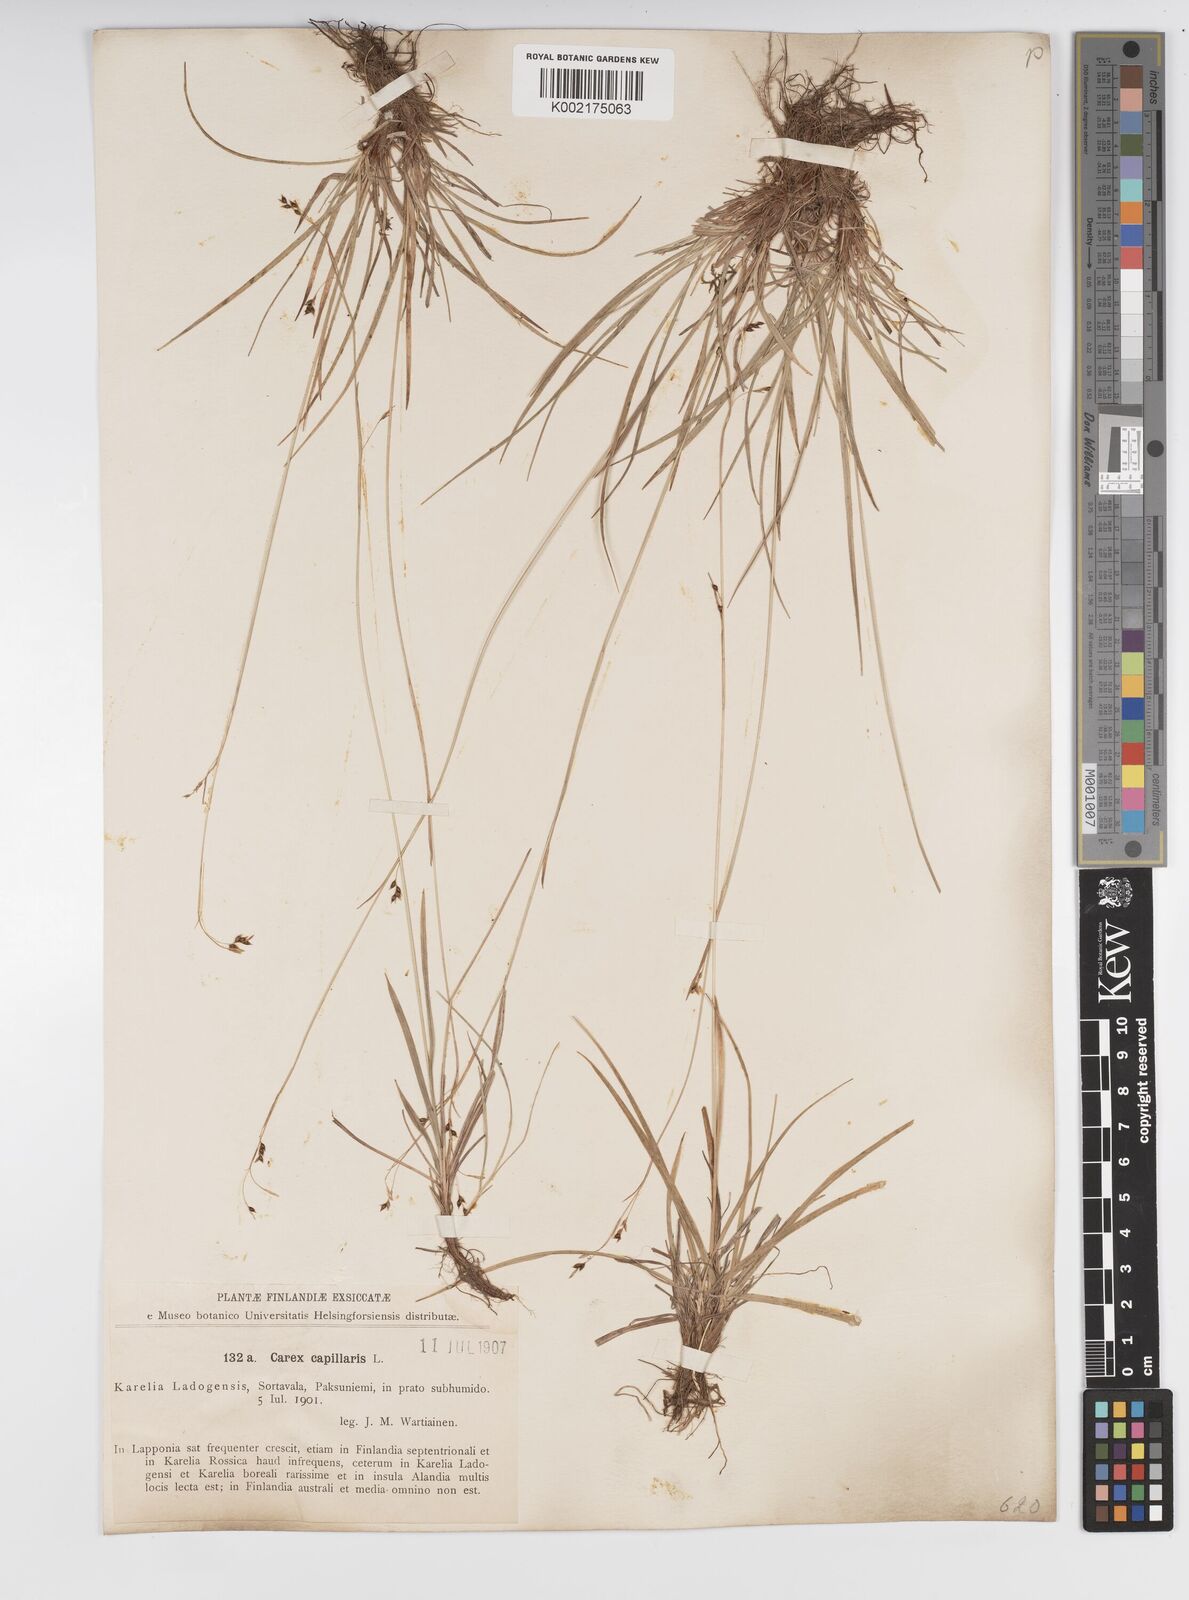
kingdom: Plantae
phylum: Tracheophyta
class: Liliopsida
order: Poales
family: Cyperaceae
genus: Carex
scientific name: Carex capillaris
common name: Hair sedge
